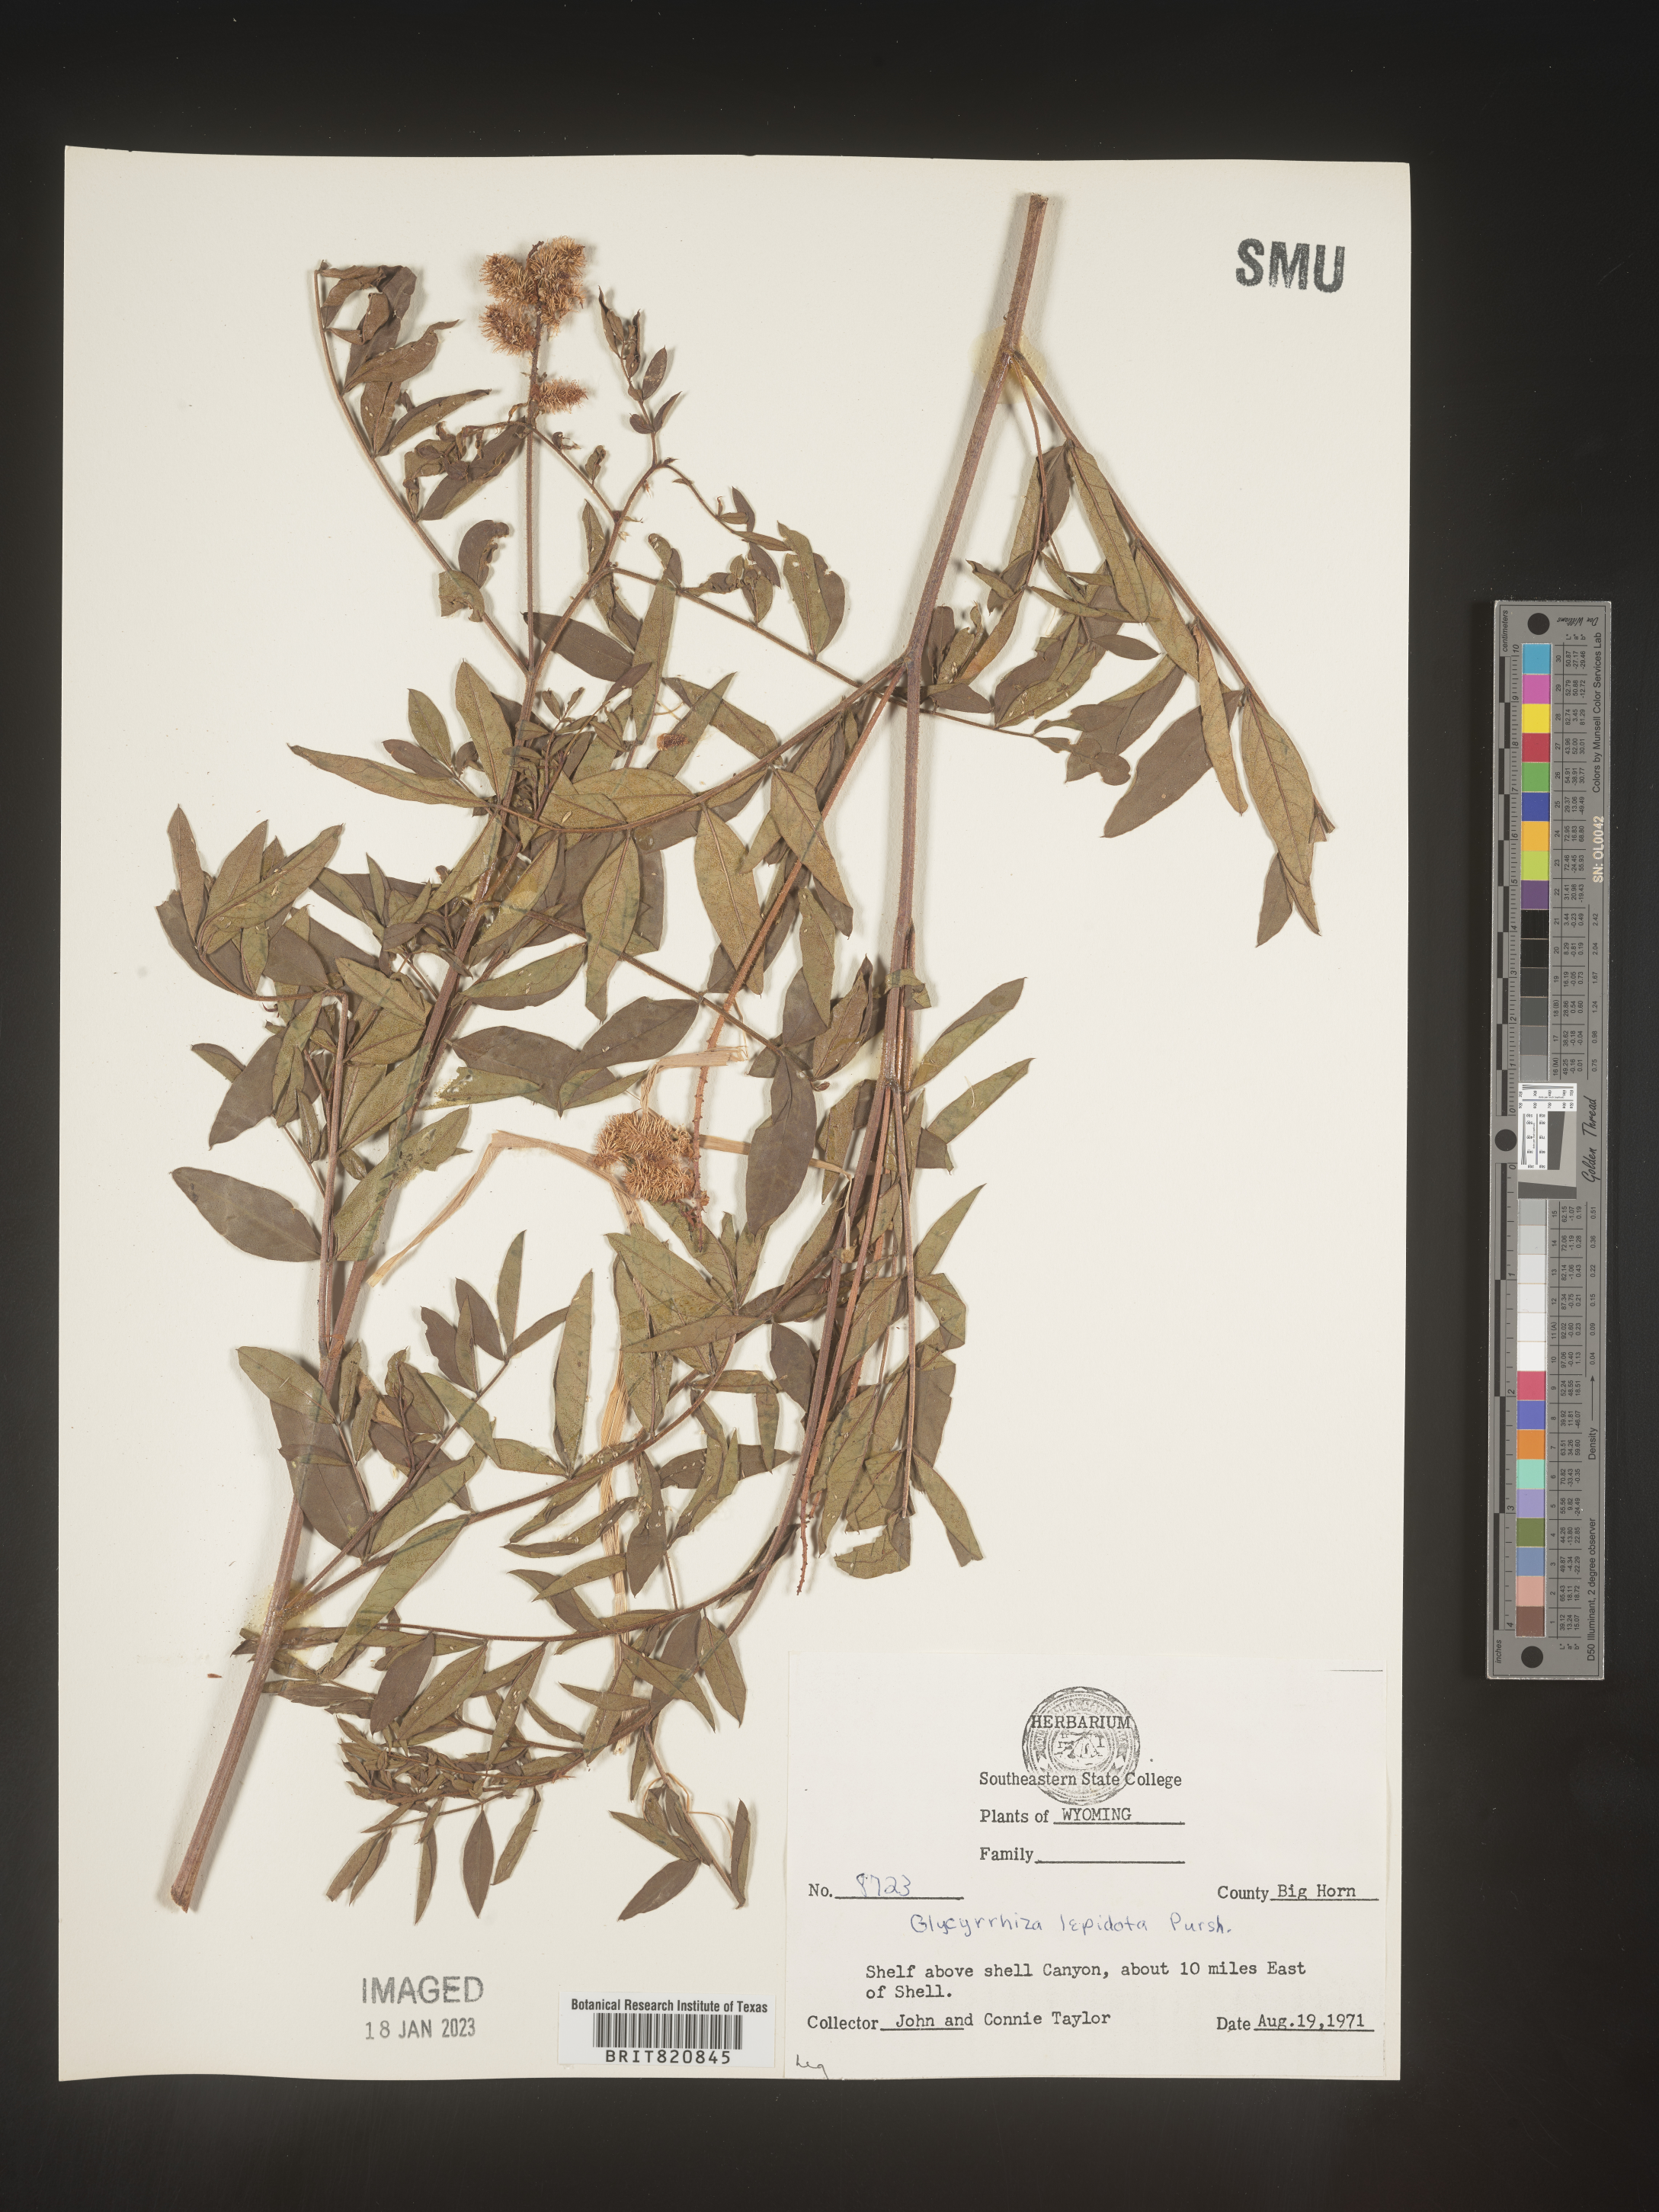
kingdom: Plantae
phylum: Tracheophyta
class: Magnoliopsida
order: Fabales
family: Fabaceae
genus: Glycyrrhiza
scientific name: Glycyrrhiza lepidota
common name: American liquorice
